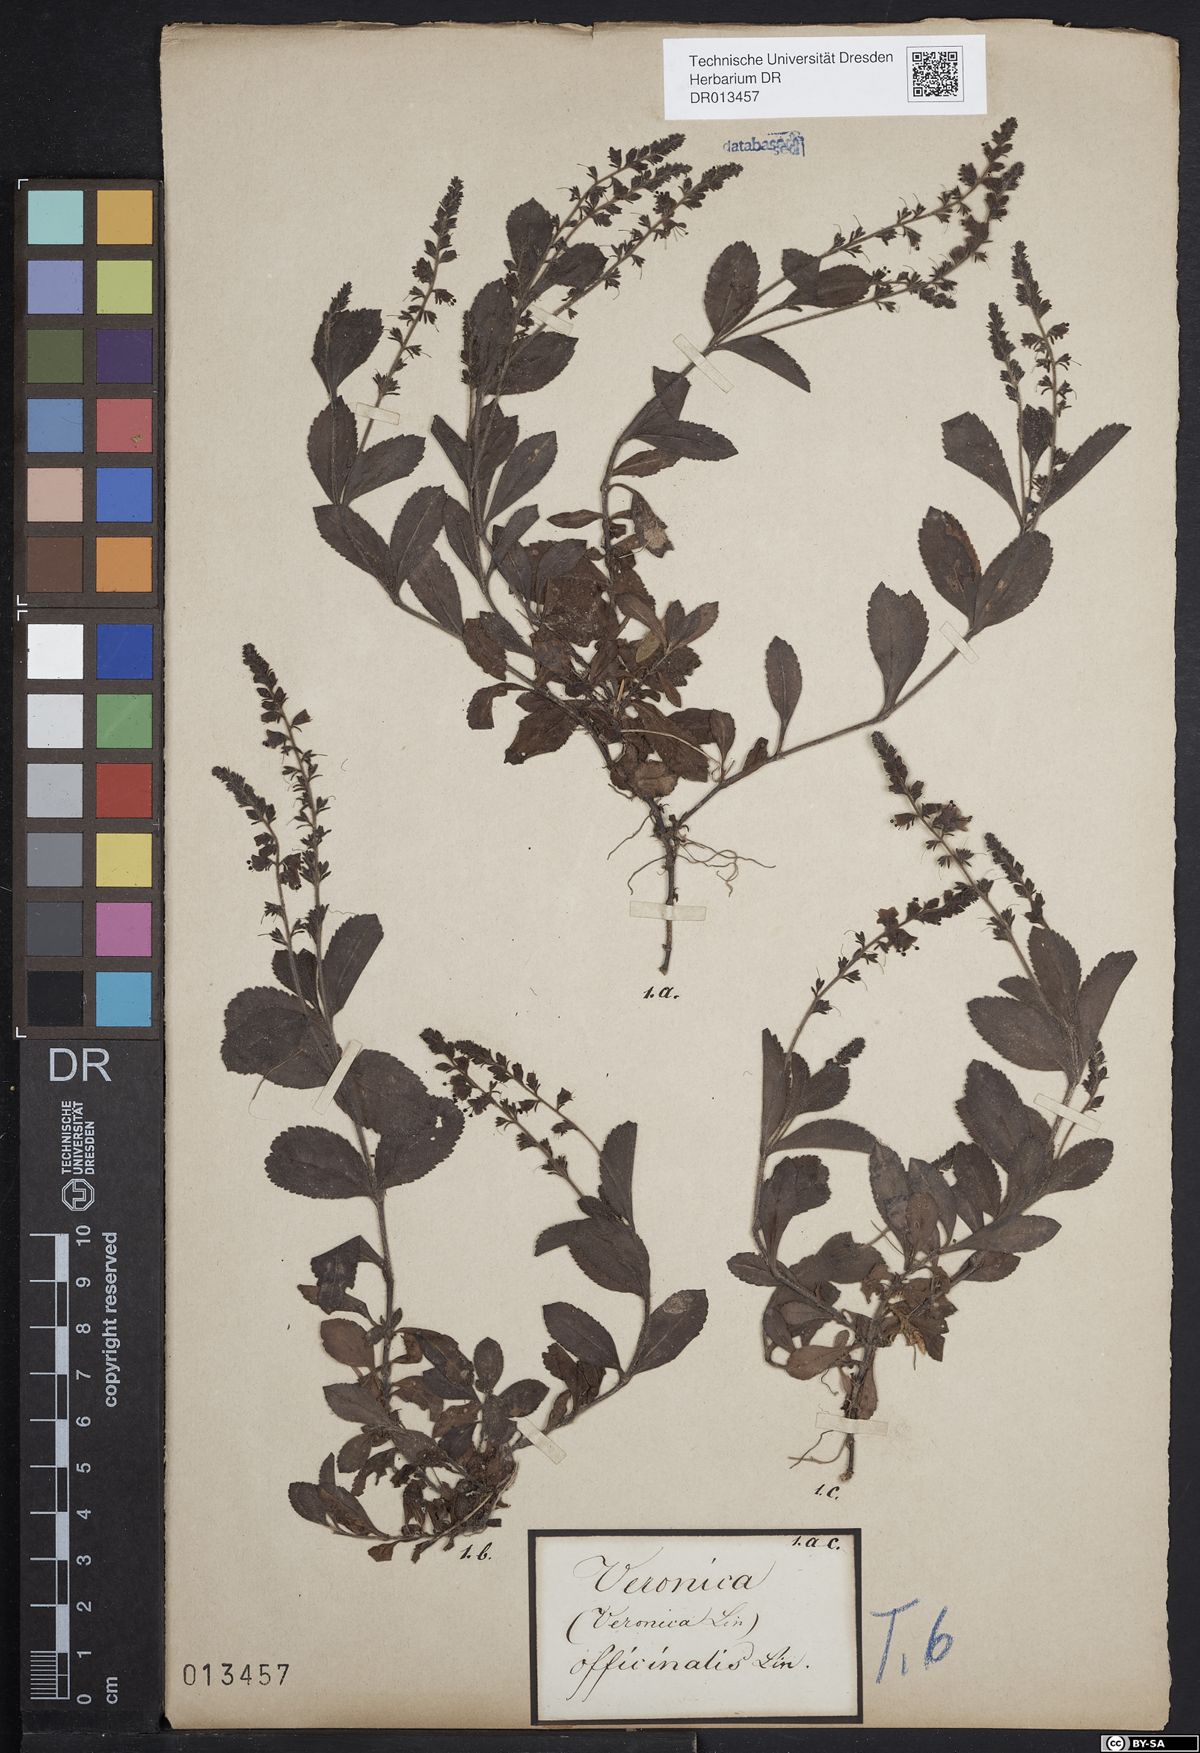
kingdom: Plantae
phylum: Tracheophyta
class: Magnoliopsida
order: Lamiales
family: Plantaginaceae
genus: Veronica
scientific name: Veronica officinalis
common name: Common speedwell
